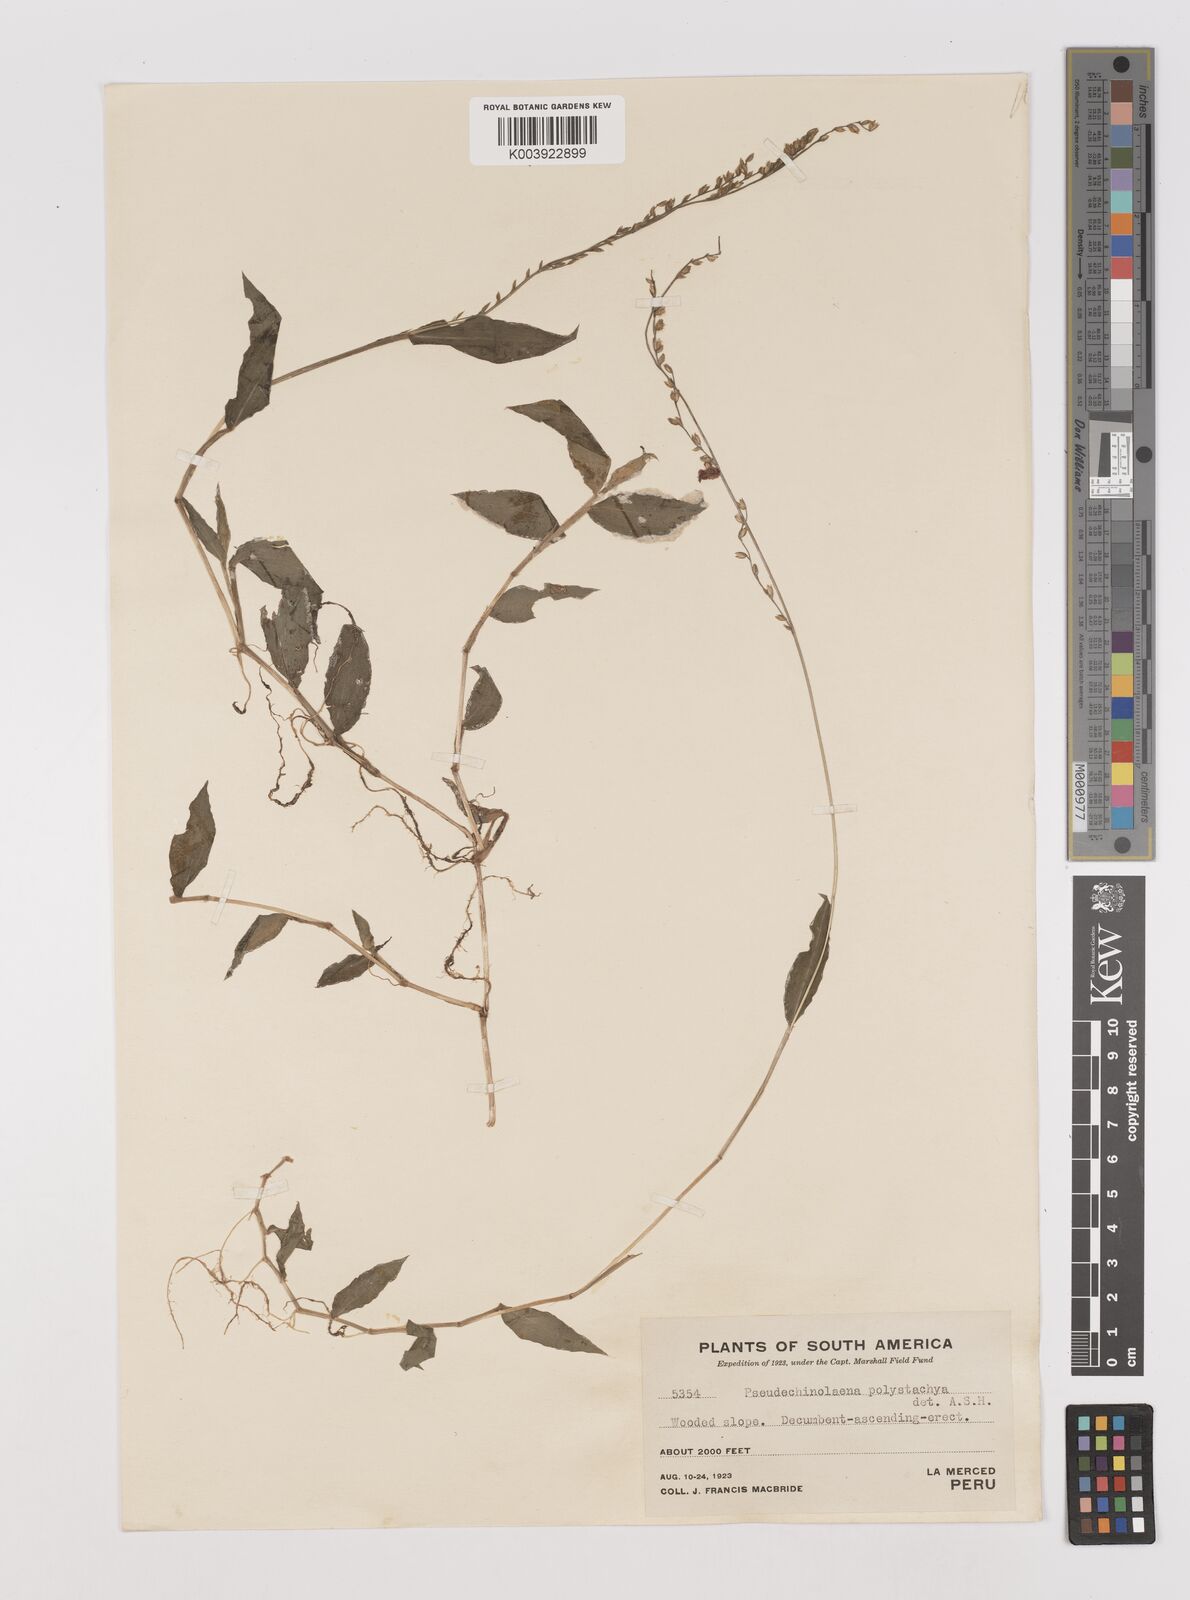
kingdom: Plantae
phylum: Tracheophyta
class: Liliopsida
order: Poales
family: Poaceae
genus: Pseudechinolaena
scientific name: Pseudechinolaena polystachya
